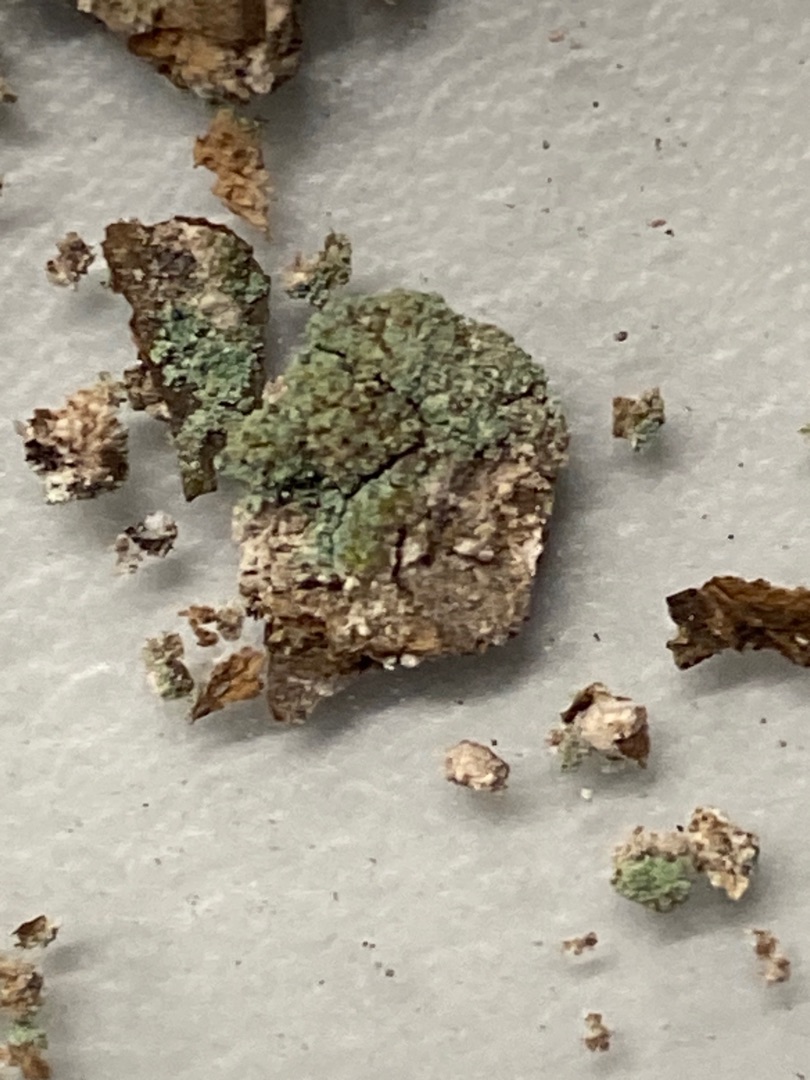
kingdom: Fungi
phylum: Ascomycota
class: Lecanoromycetes
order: Lecanorales
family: Cladoniaceae
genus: Cladonia
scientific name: Cladonia
